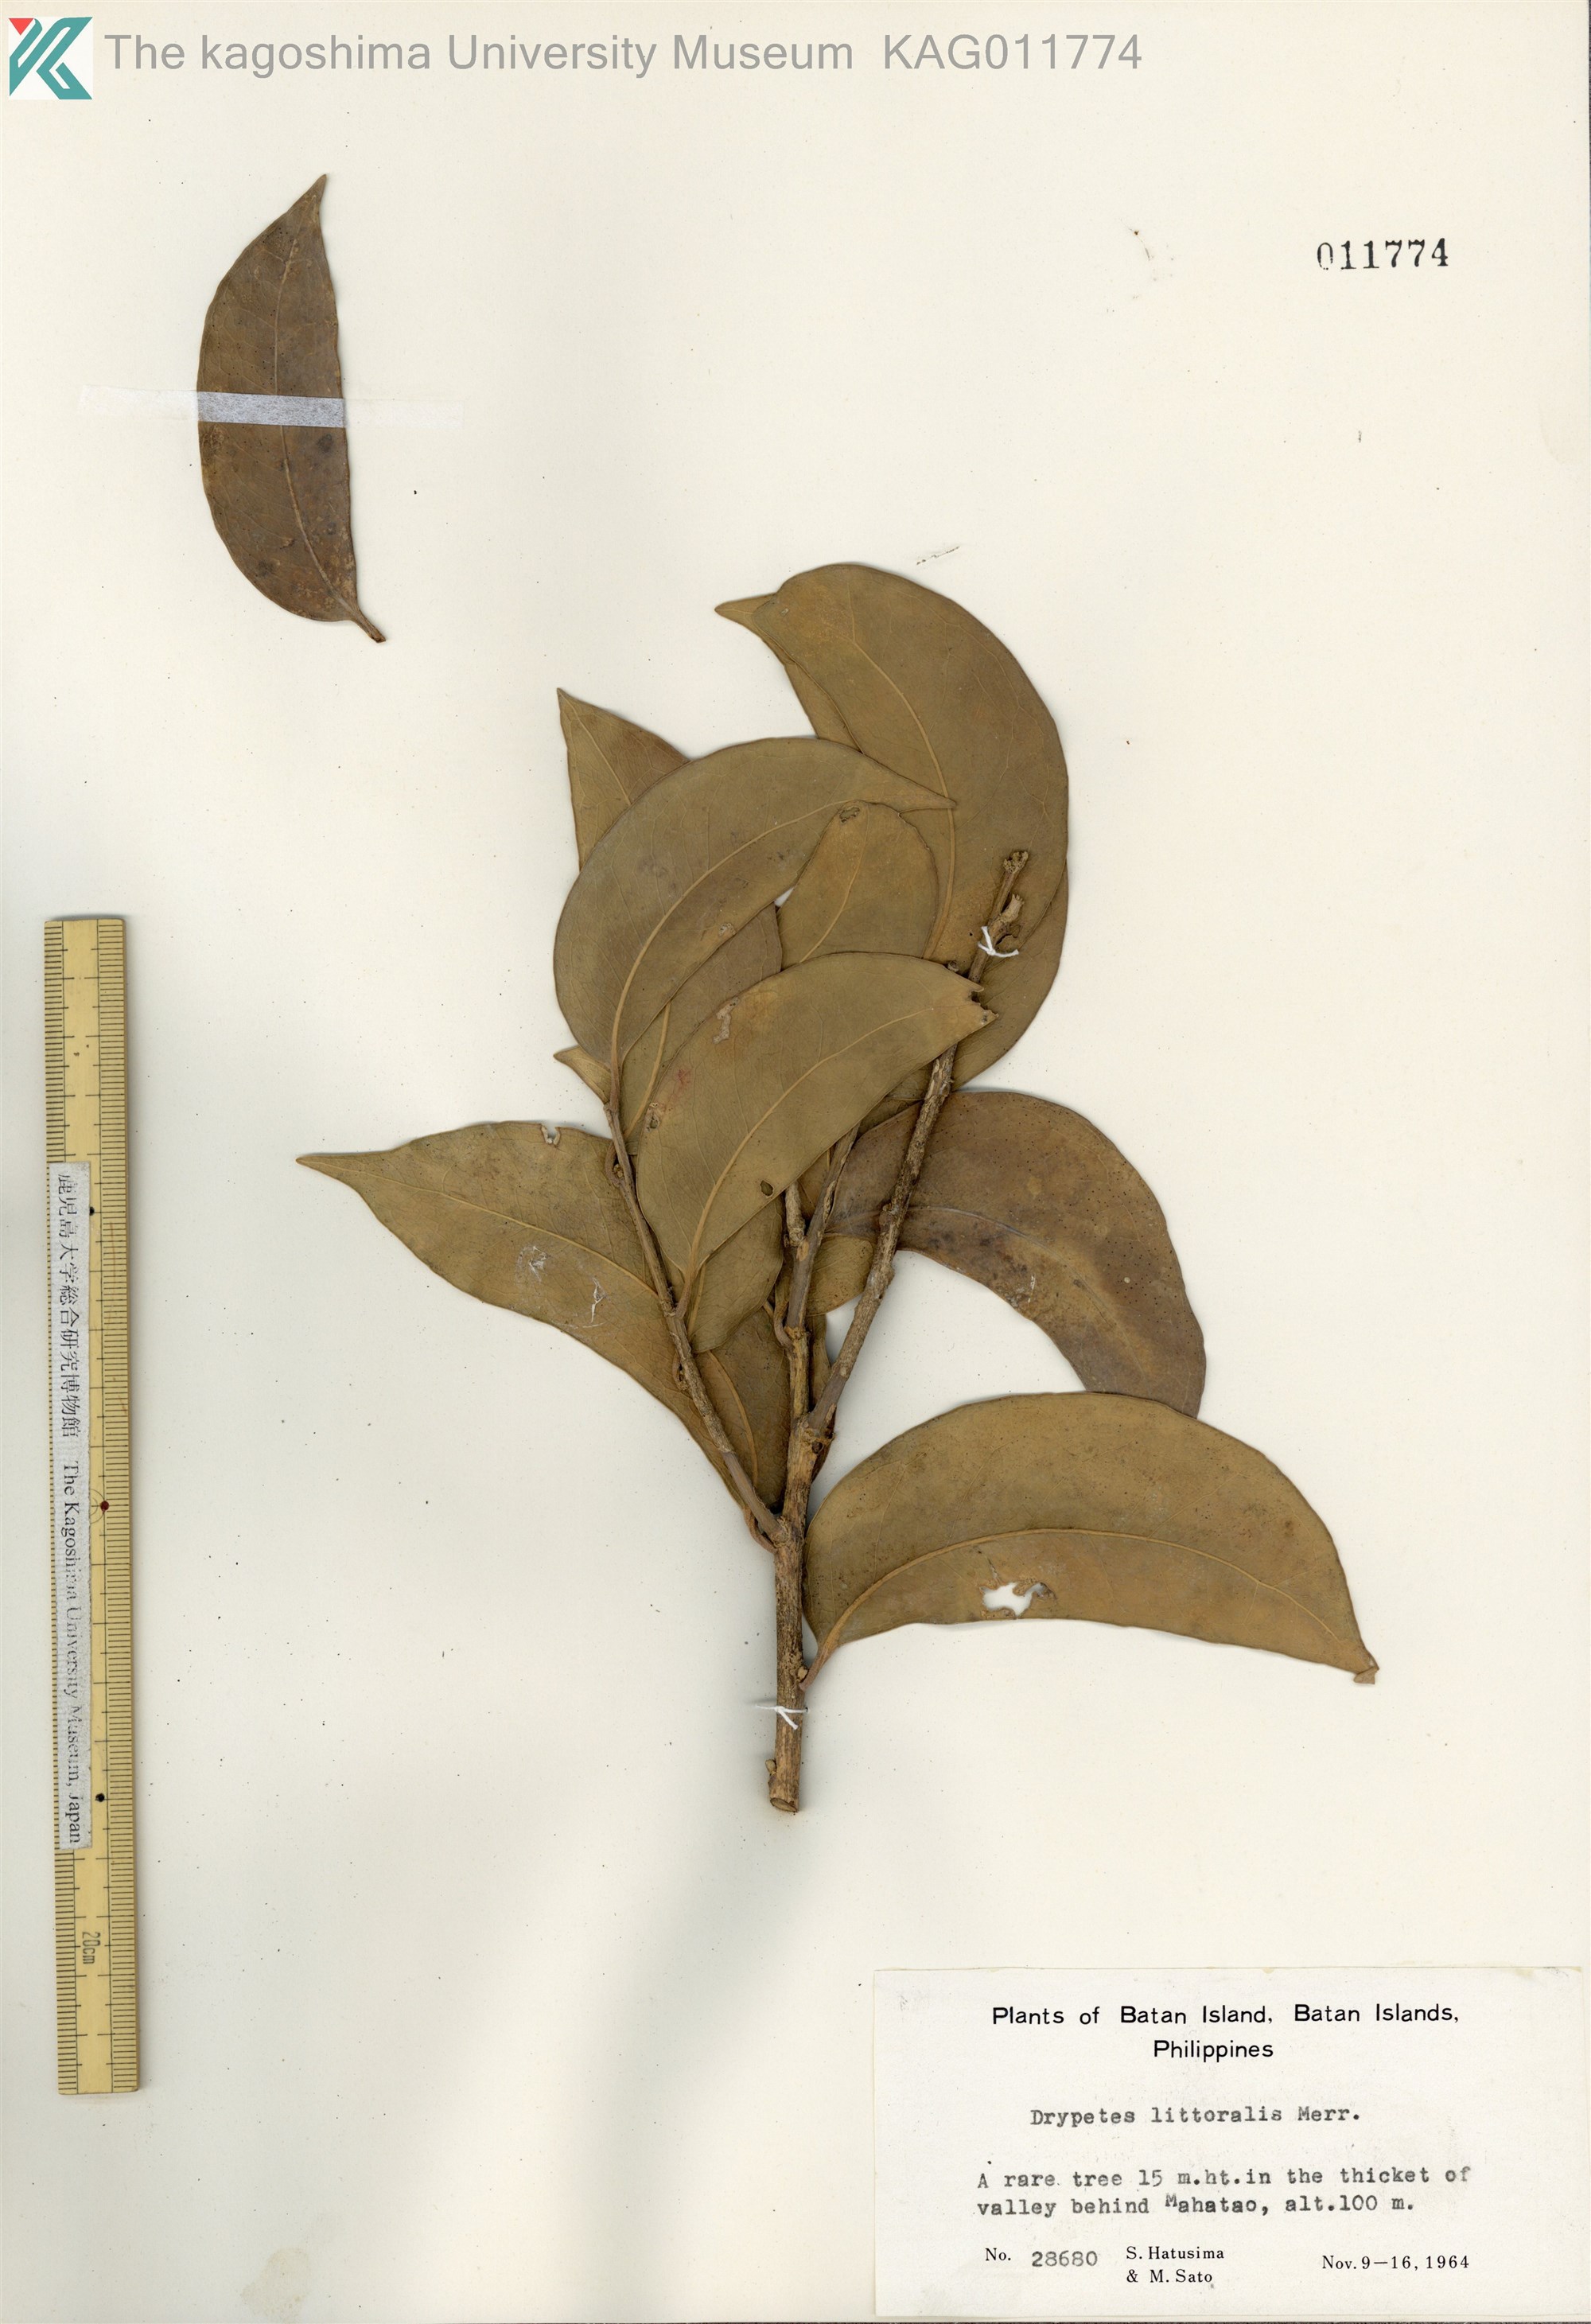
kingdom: Plantae
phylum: Tracheophyta
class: Magnoliopsida
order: Malpighiales
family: Putranjivaceae
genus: Drypetes
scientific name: Drypetes littoralis
